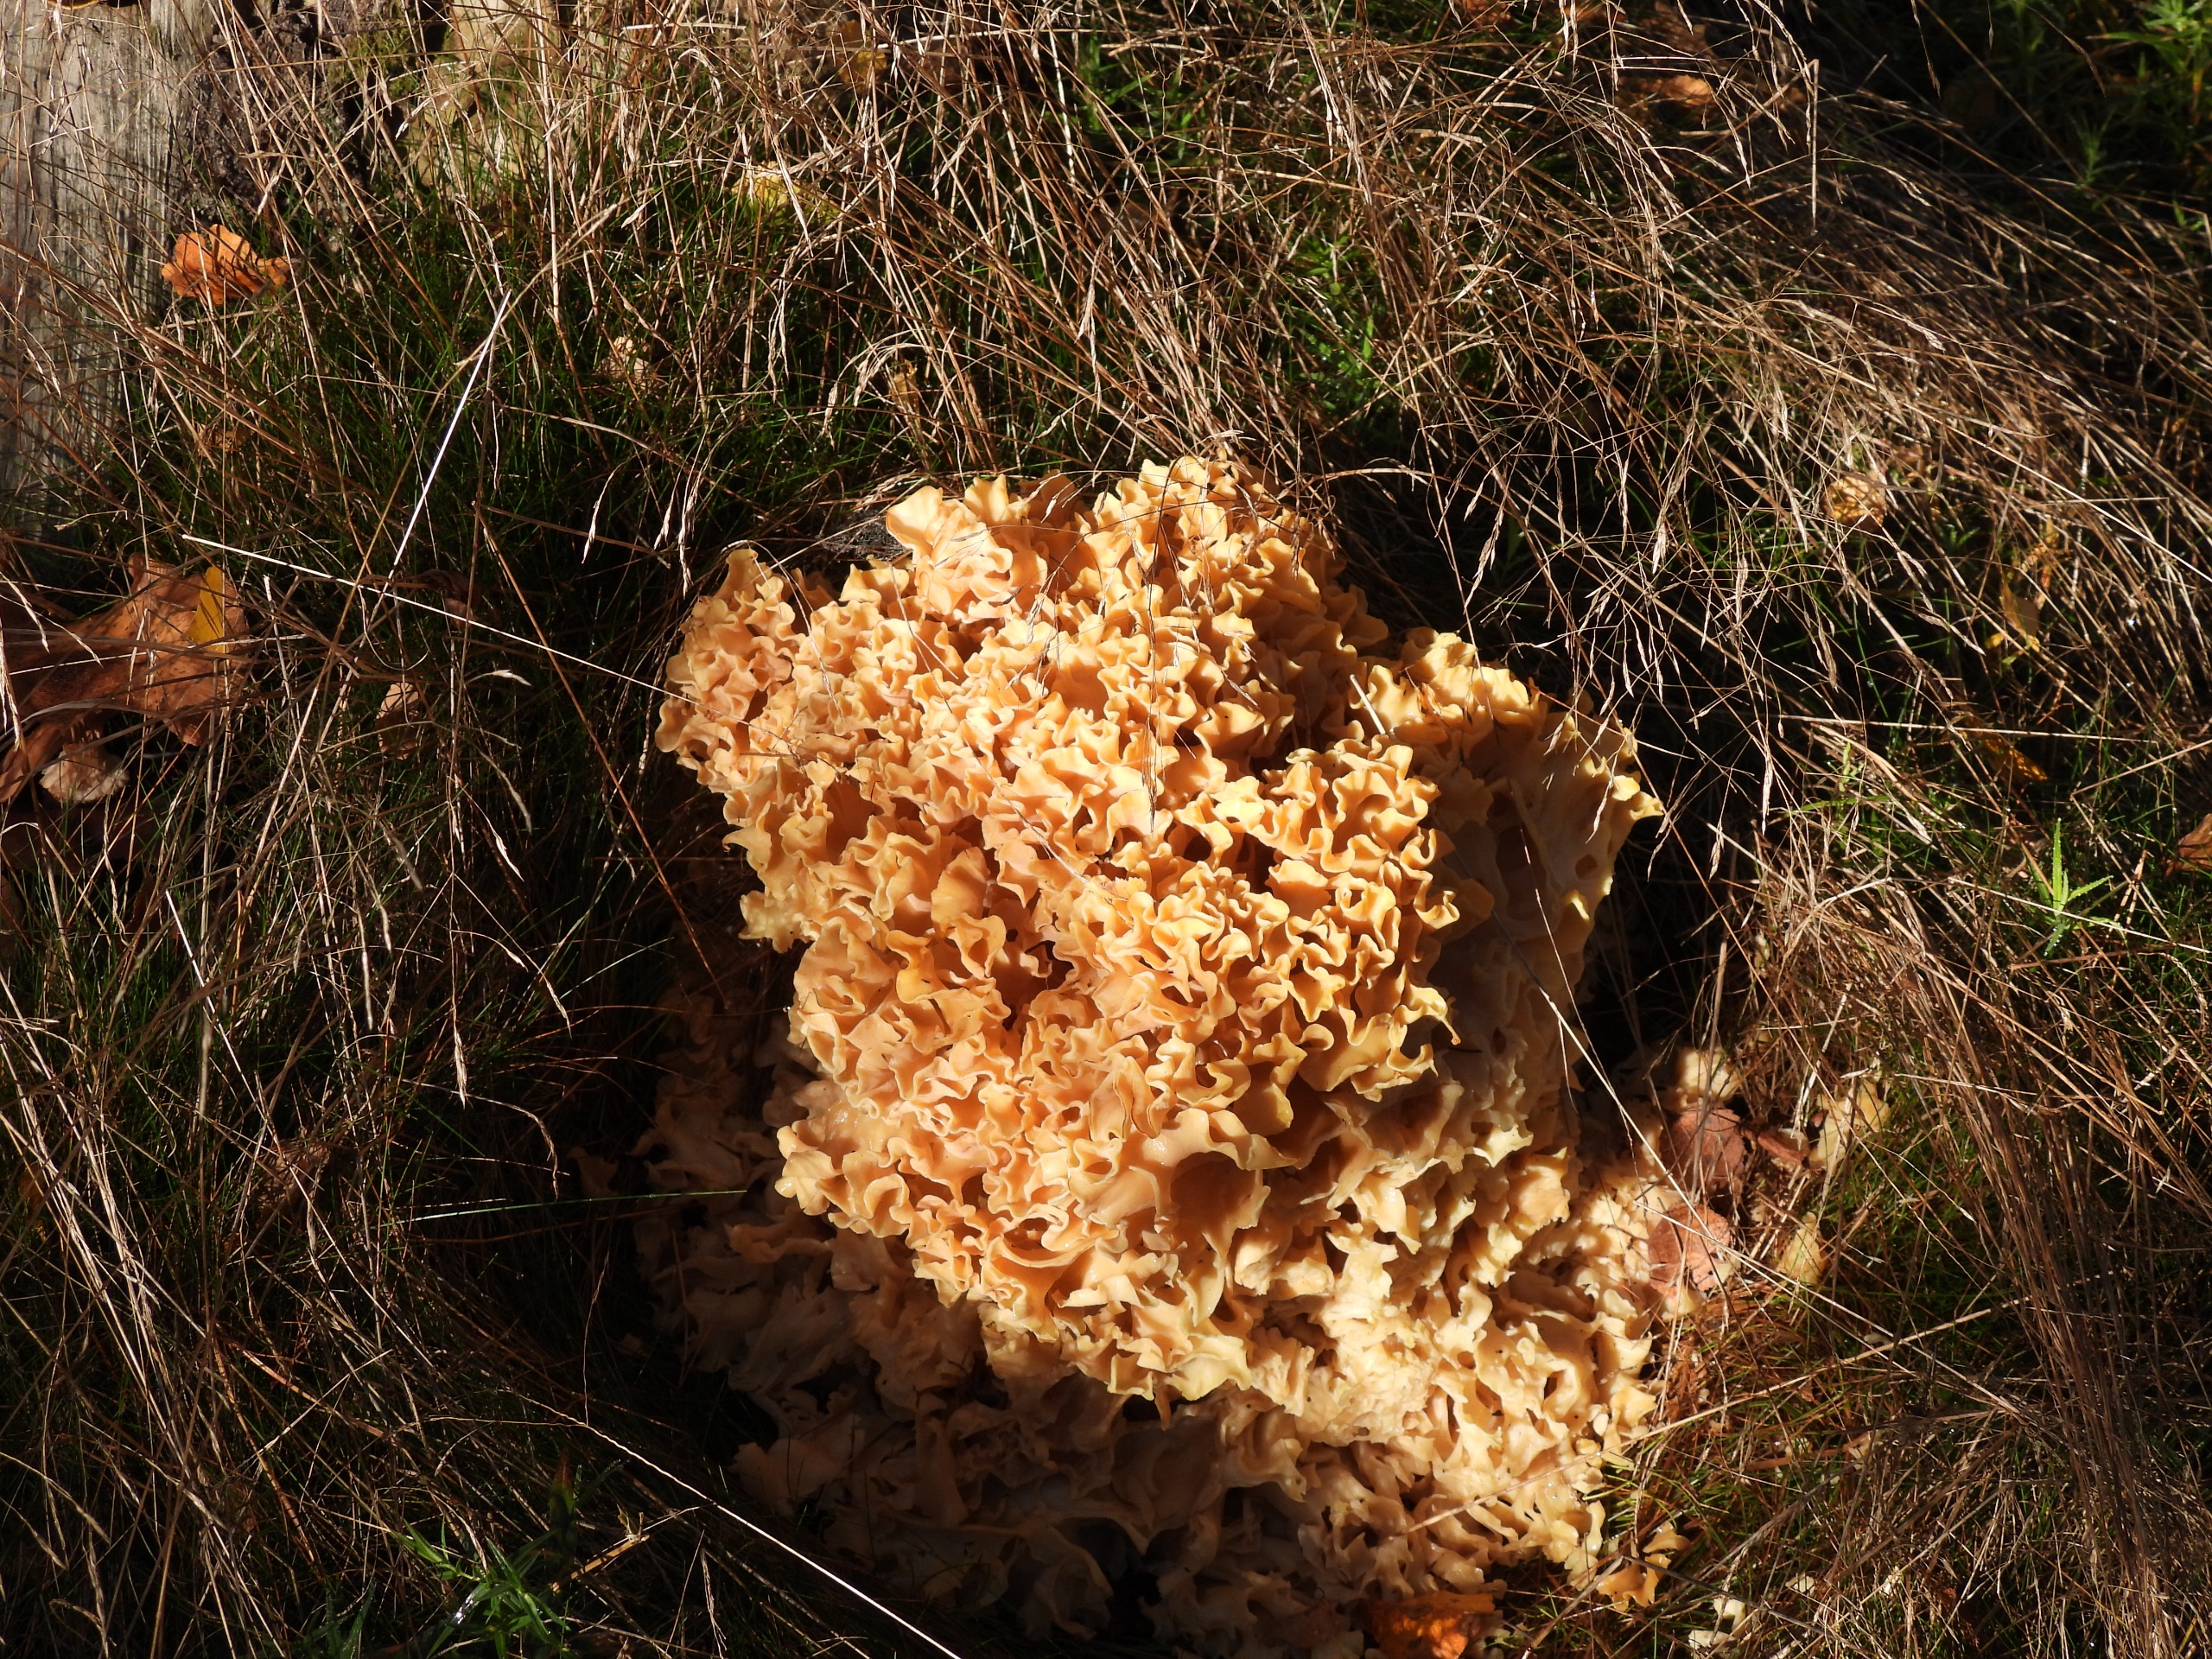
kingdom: Fungi
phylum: Basidiomycota
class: Agaricomycetes
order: Polyporales
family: Sparassidaceae
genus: Sparassis
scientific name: Sparassis crispa
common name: Kruset blomkålssvamp
